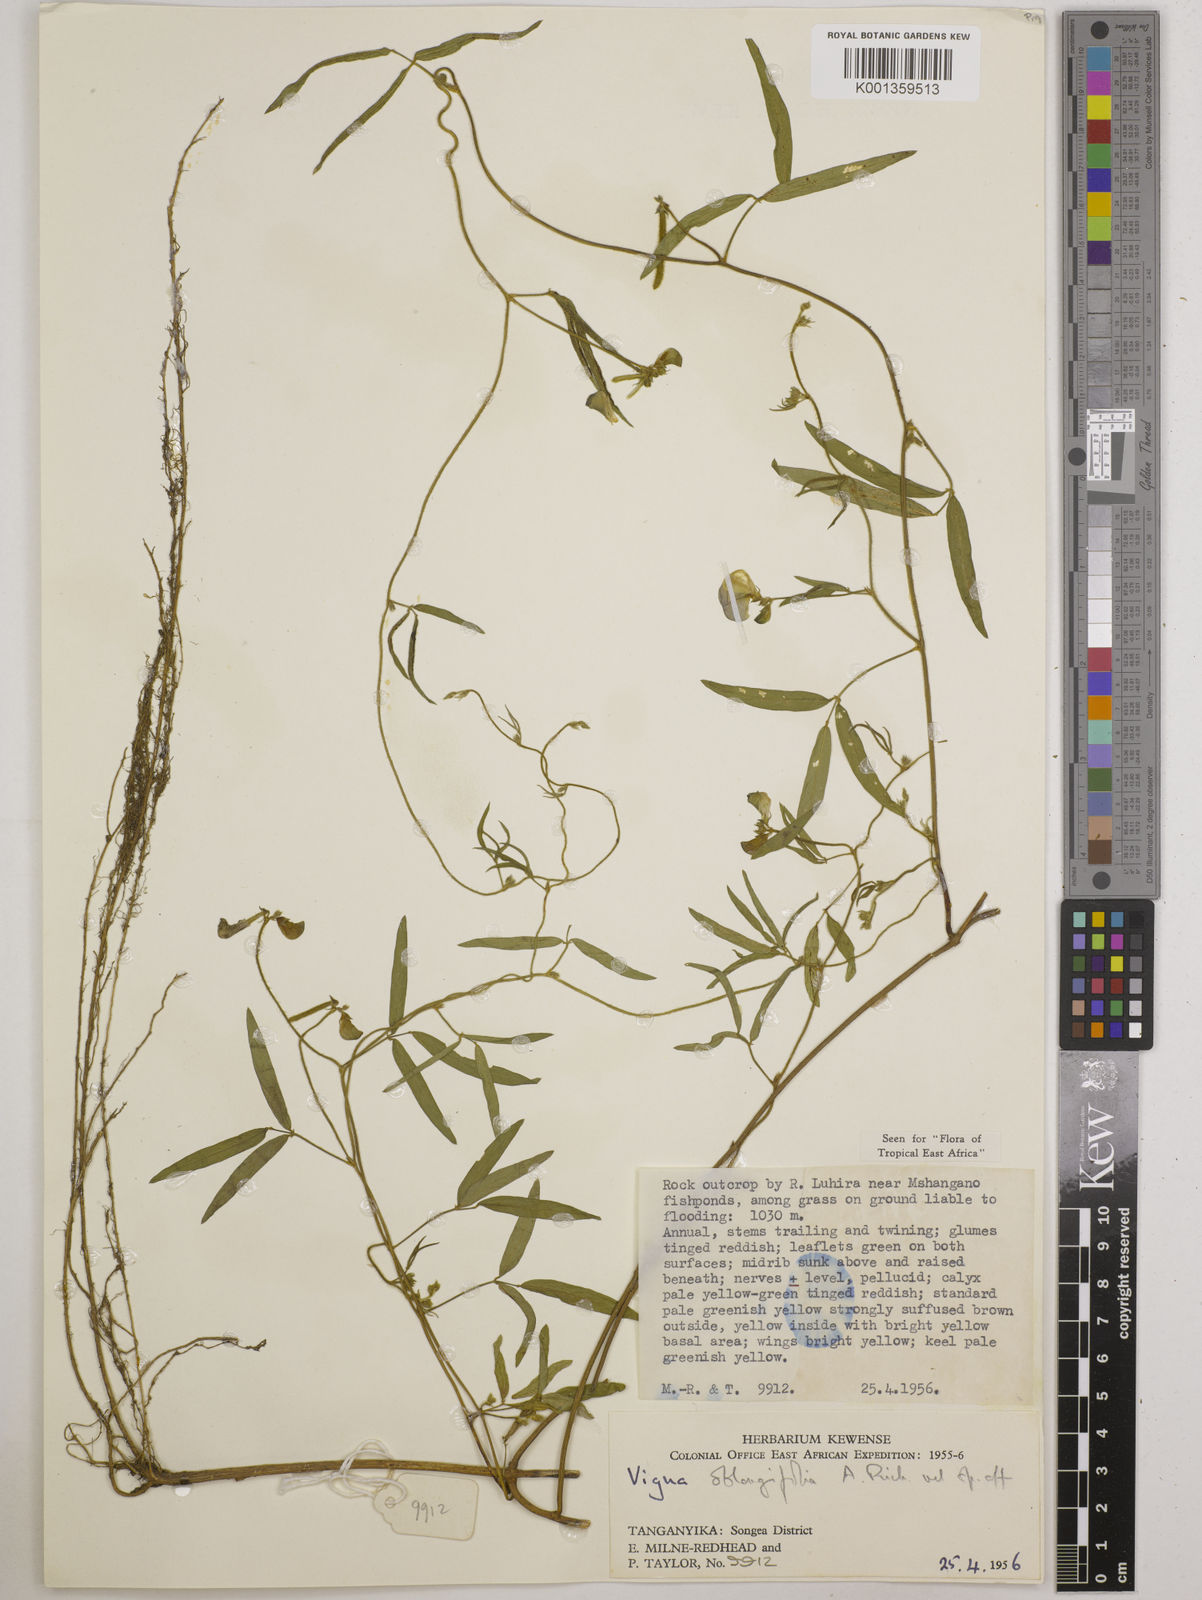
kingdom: Plantae
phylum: Tracheophyta
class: Magnoliopsida
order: Fabales
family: Fabaceae
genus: Vigna
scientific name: Vigna oblongifolia
